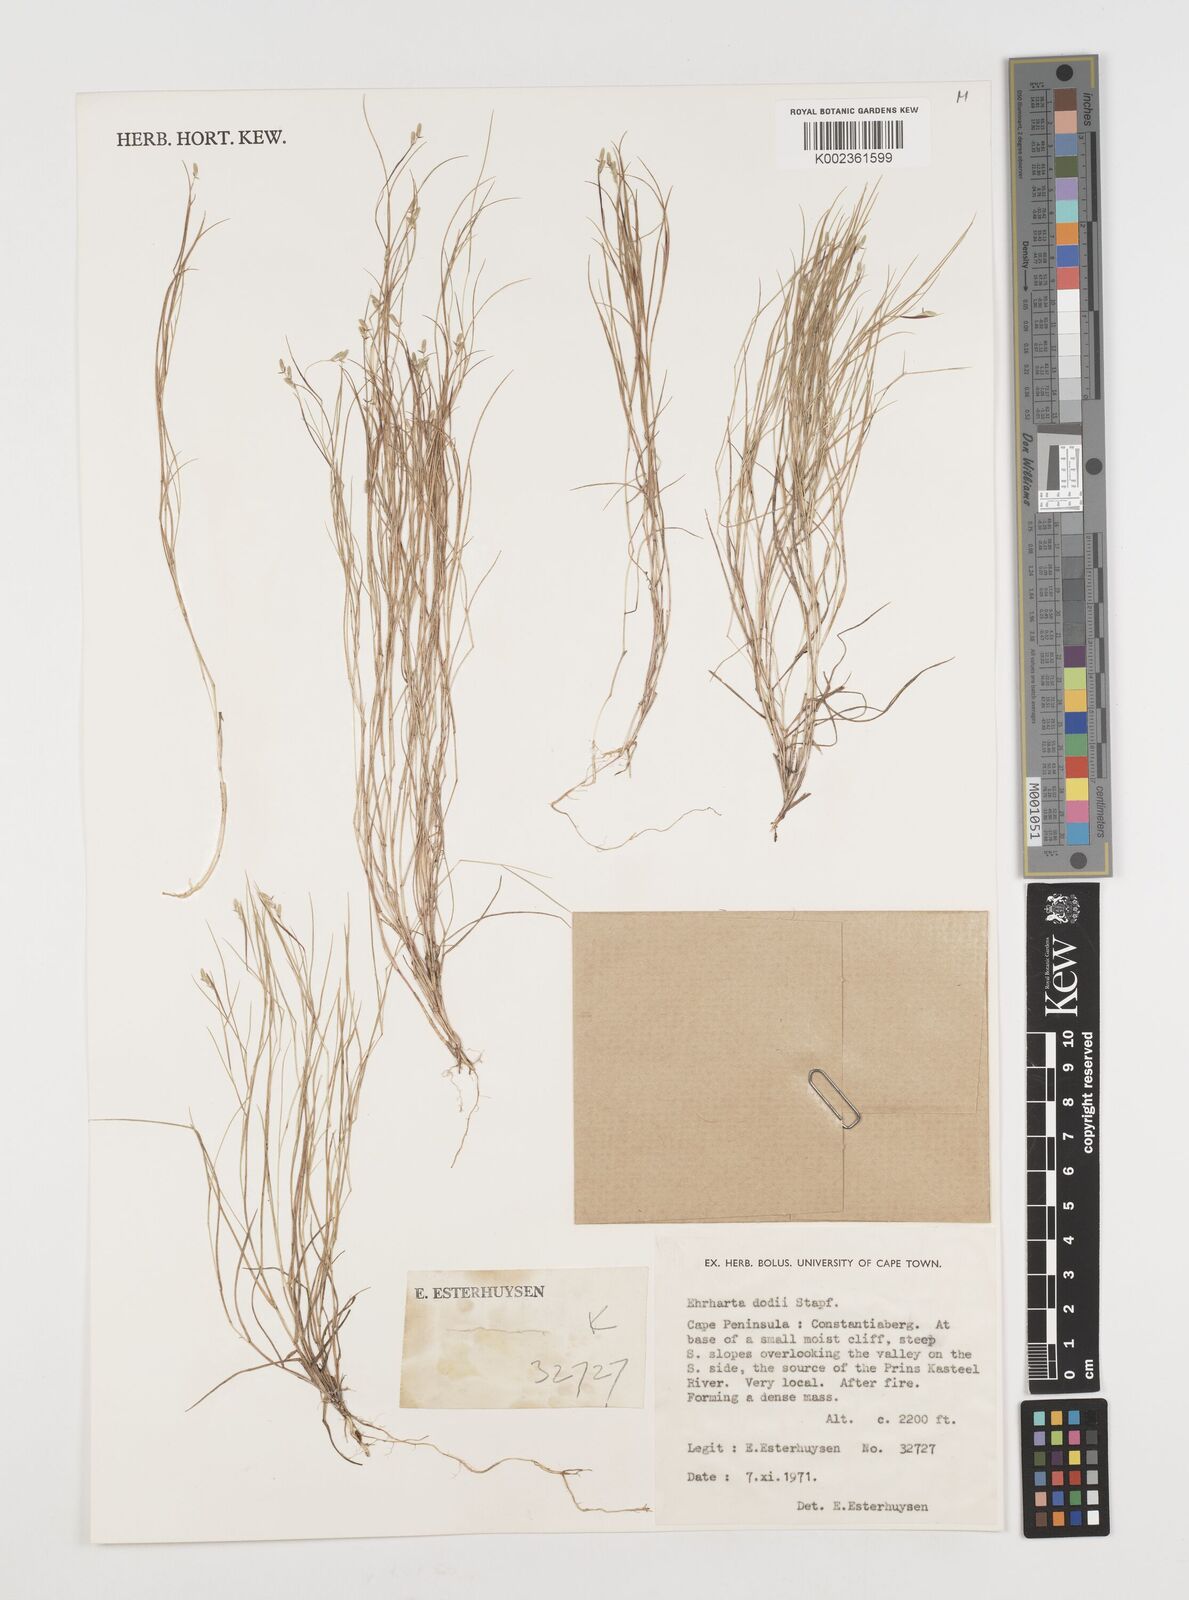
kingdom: Plantae
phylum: Tracheophyta
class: Liliopsida
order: Poales
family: Poaceae
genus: Ehrharta
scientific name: Ehrharta rupestris
